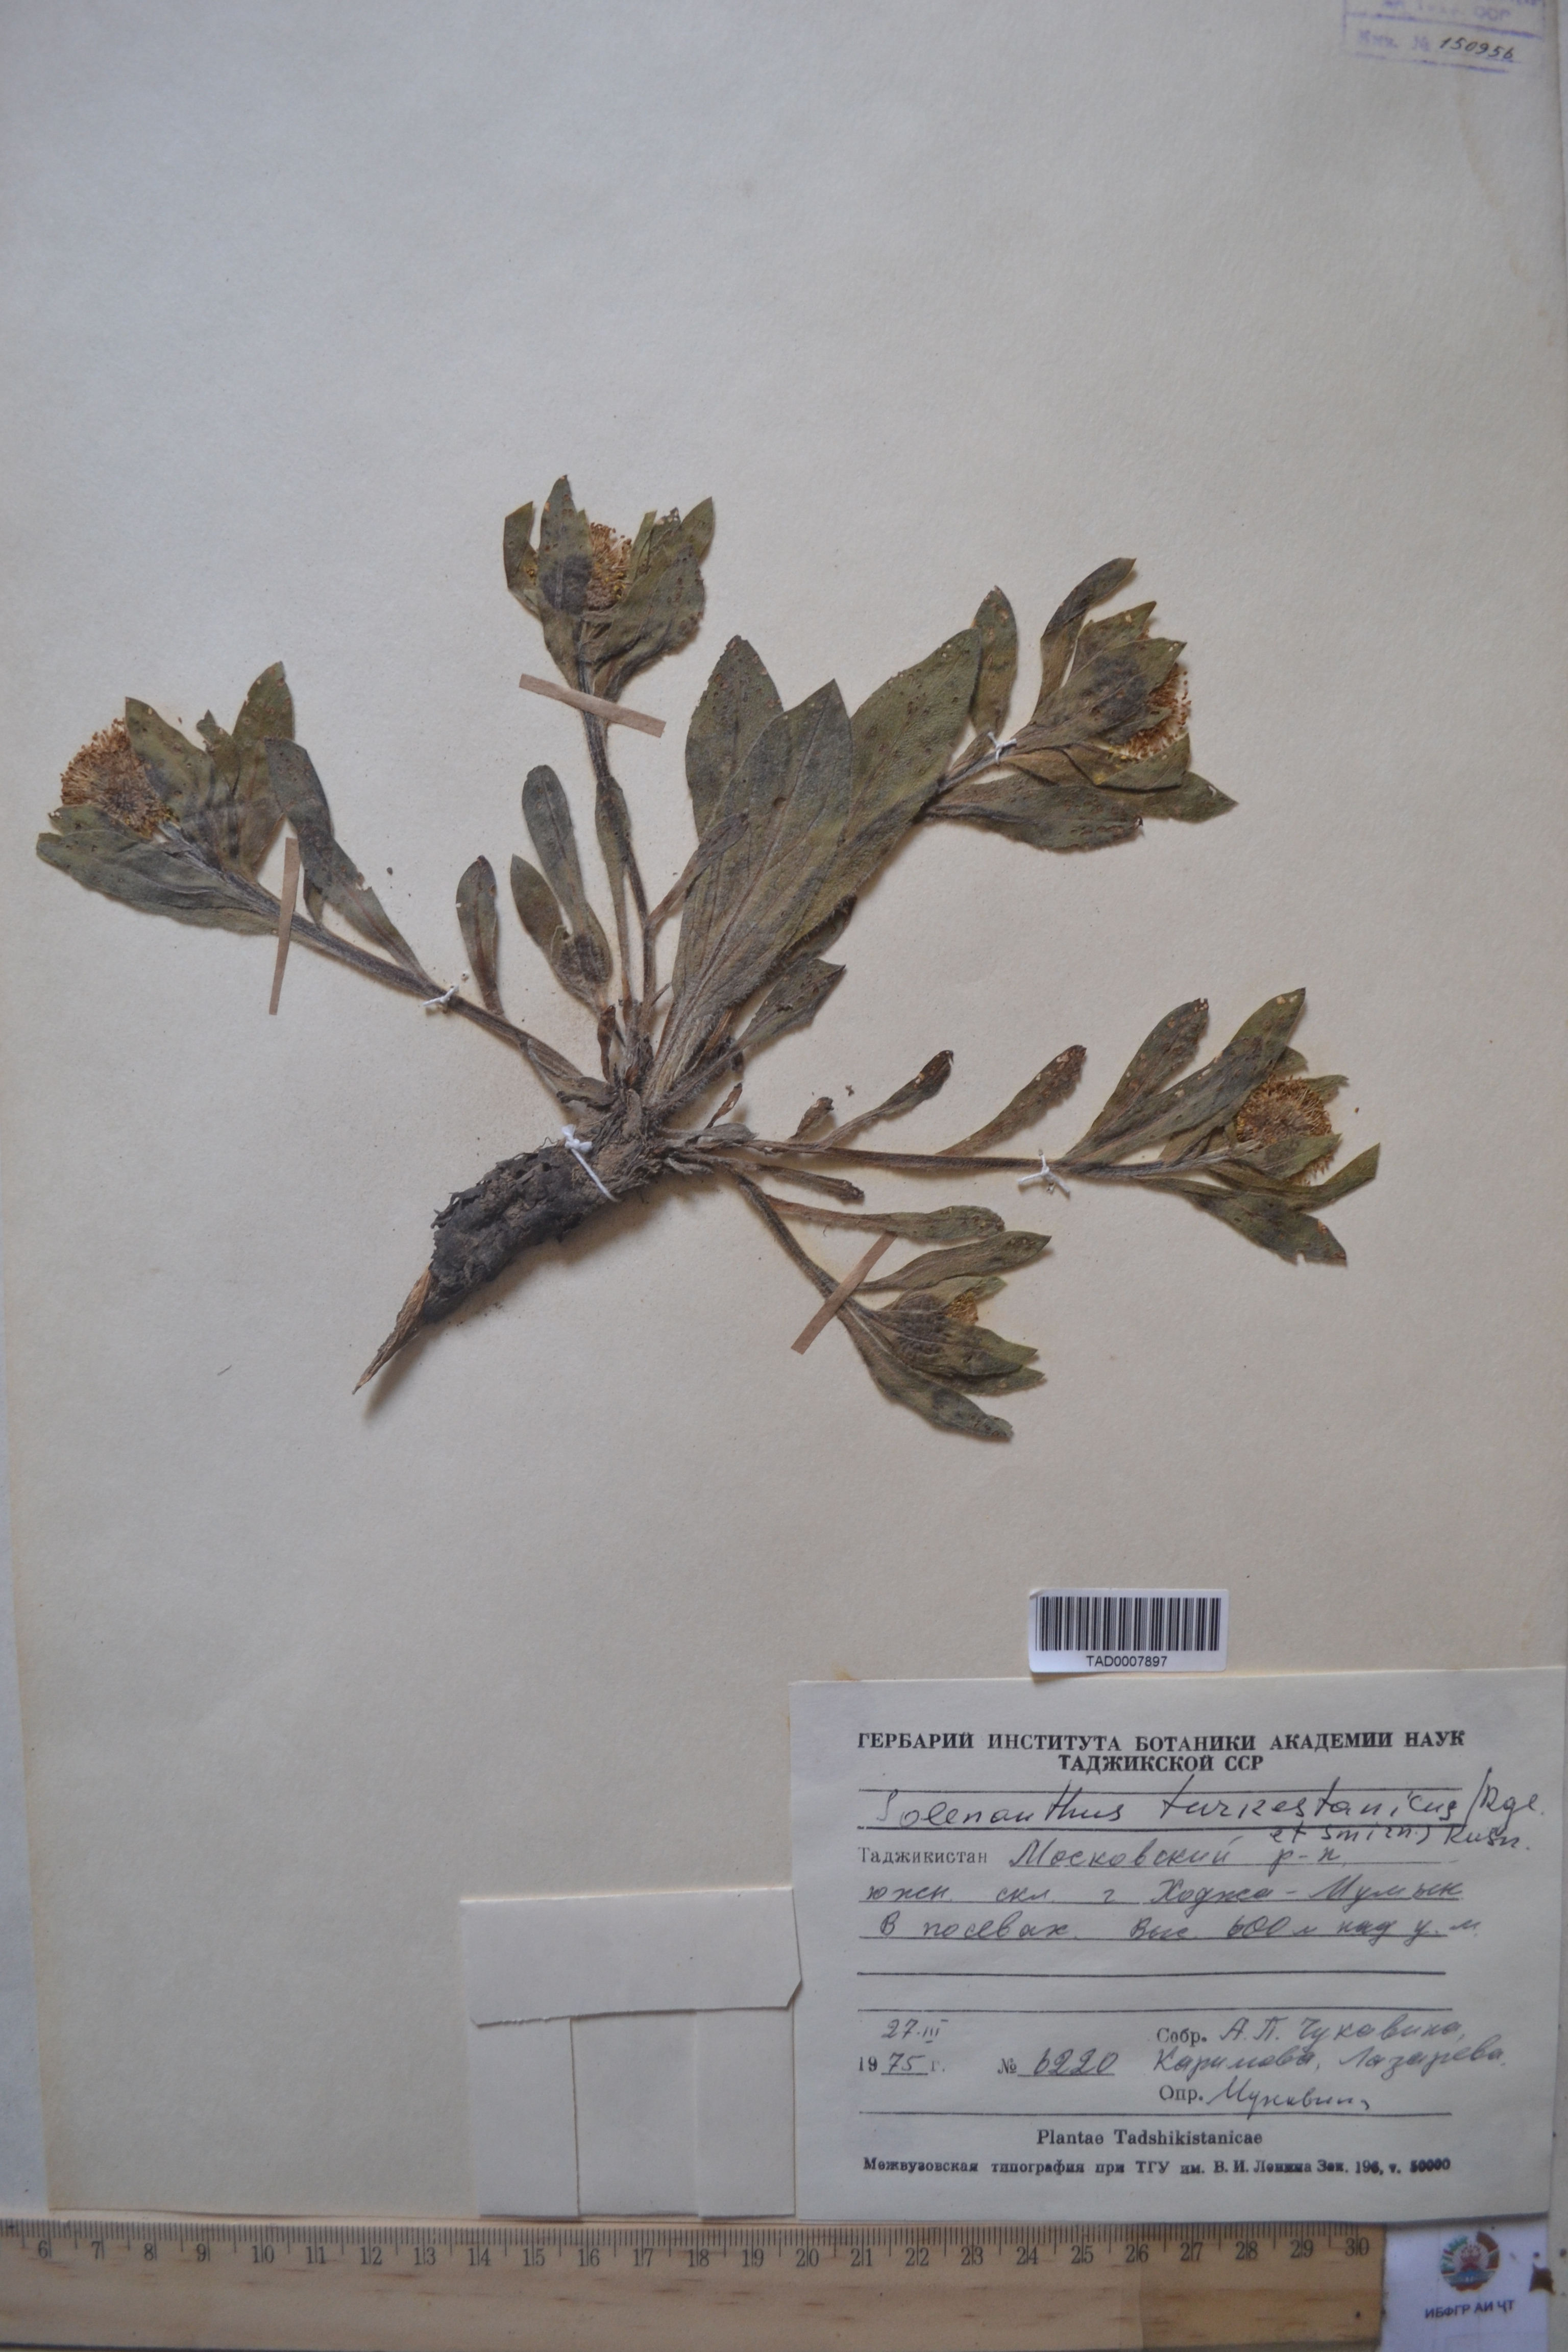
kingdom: Plantae
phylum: Tracheophyta
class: Magnoliopsida
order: Boraginales
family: Boraginaceae
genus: Solenanthus
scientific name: Solenanthus turkestanicus
